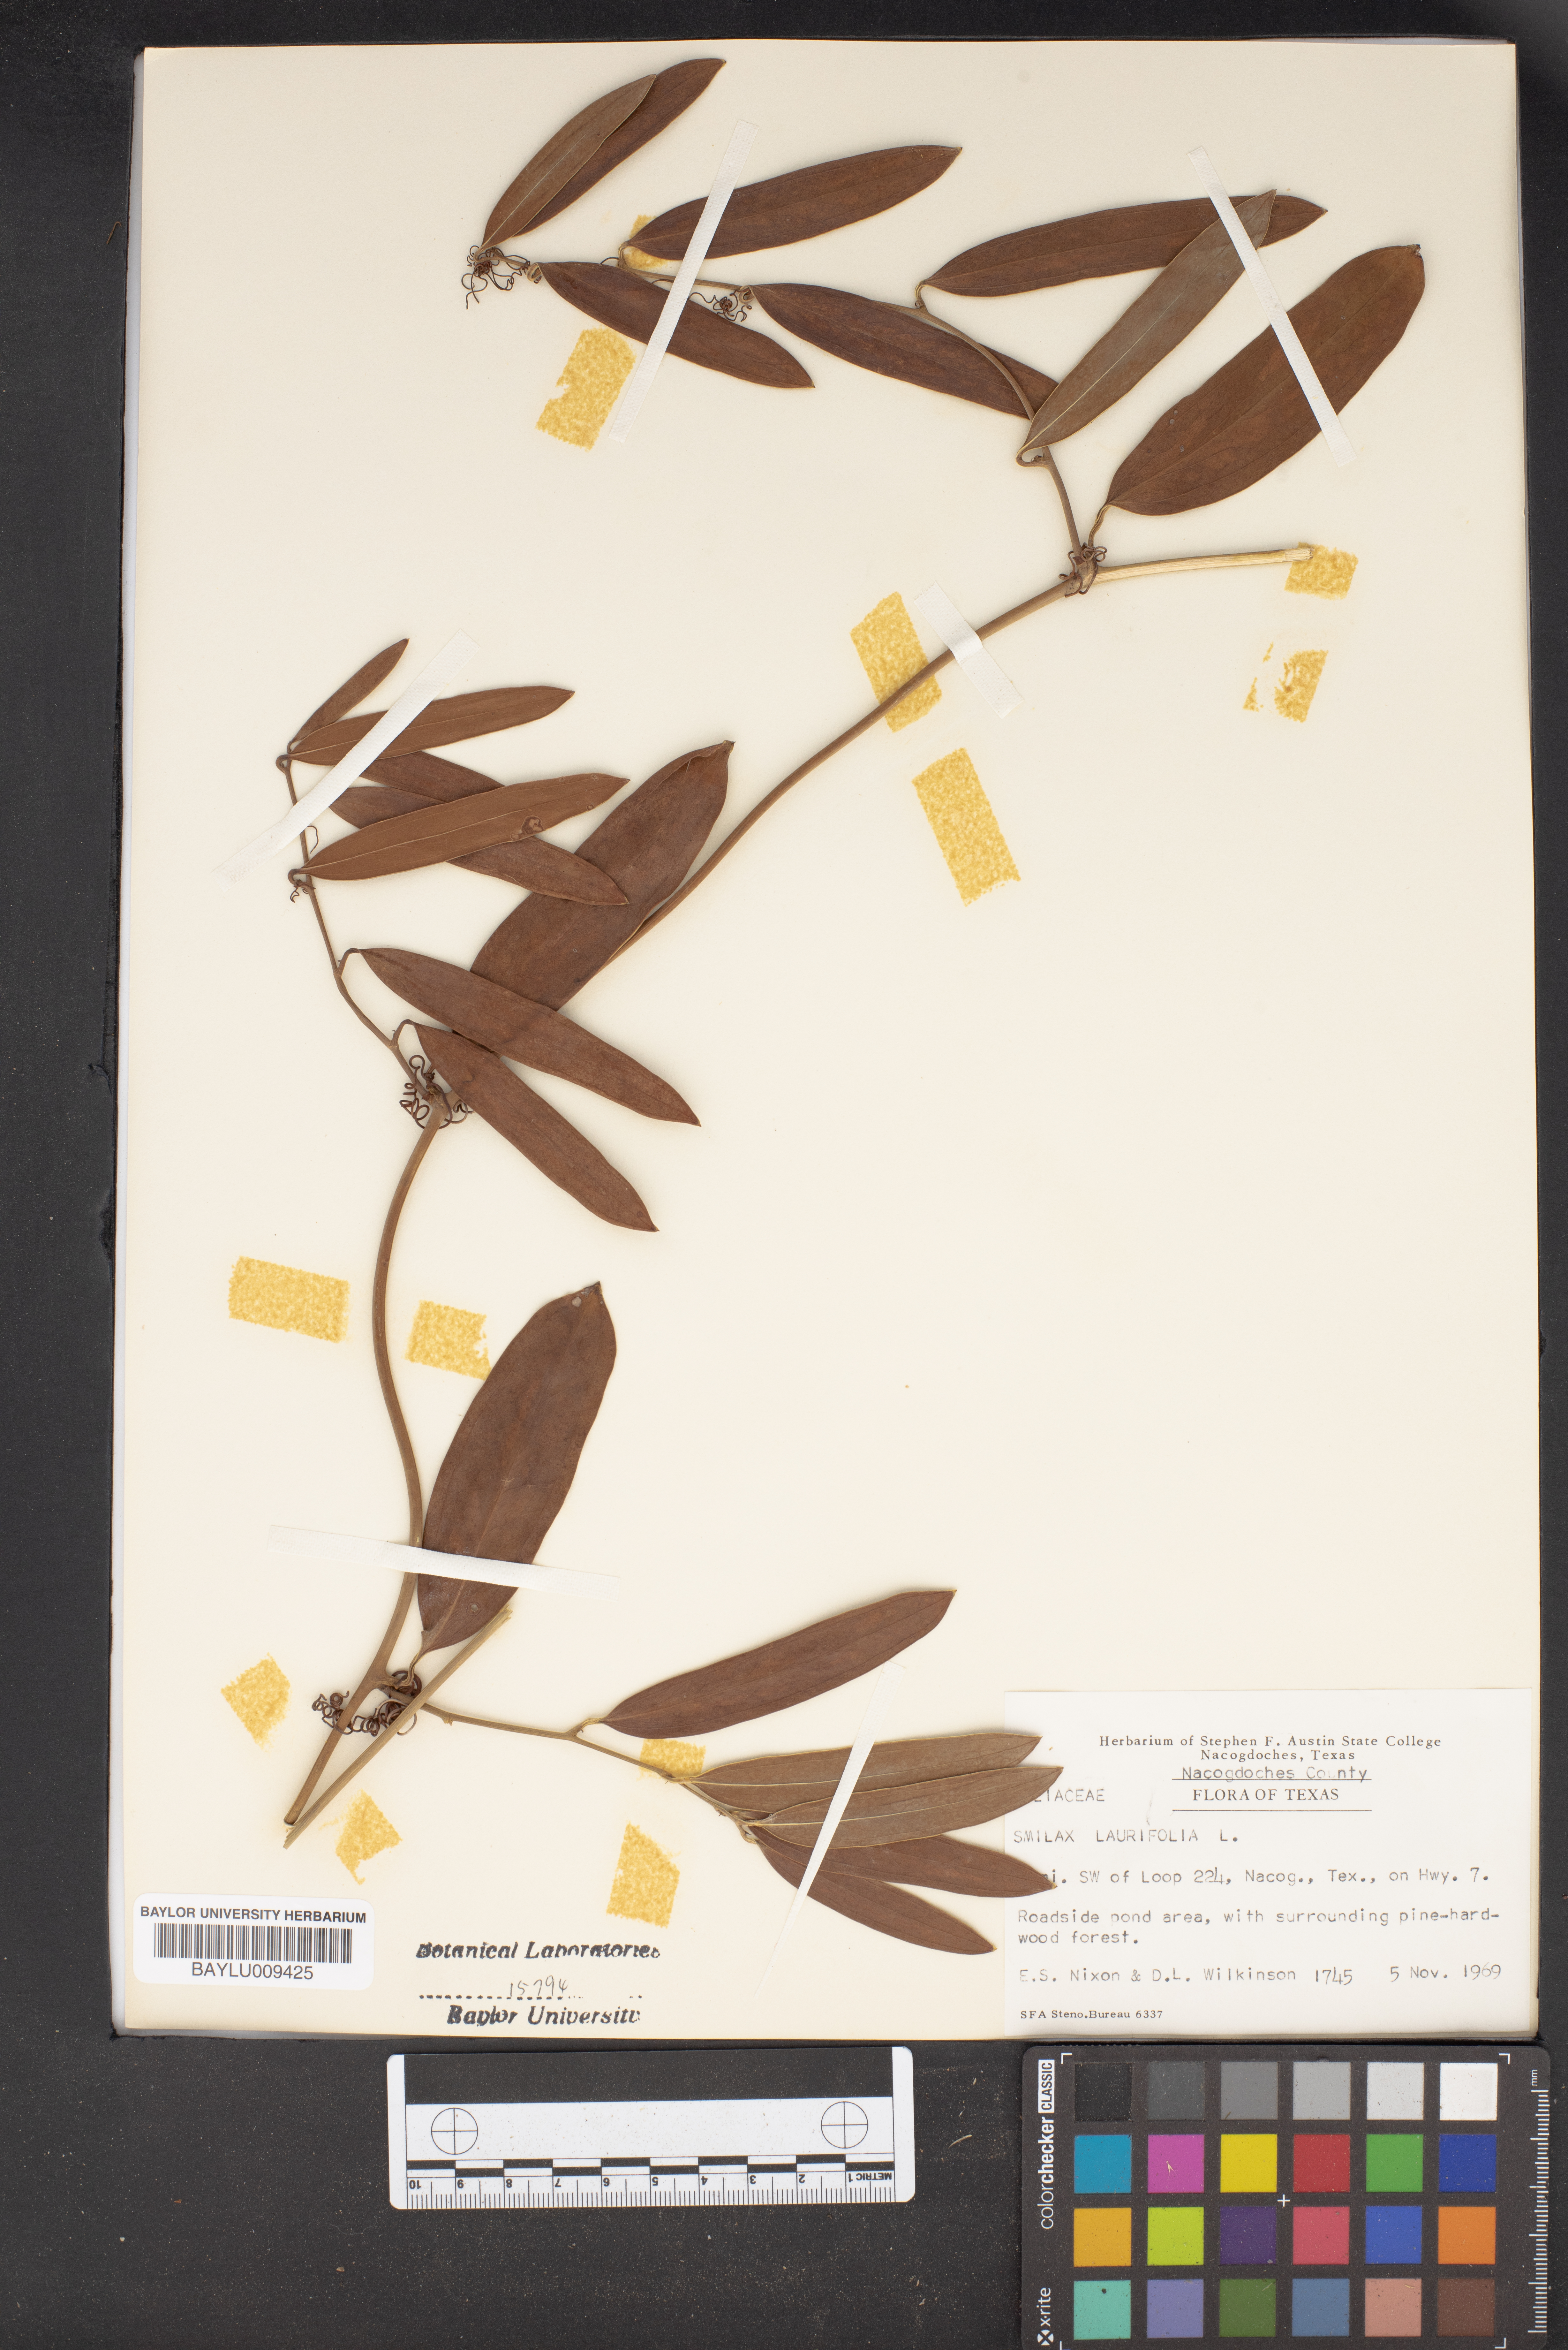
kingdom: Plantae
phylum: Tracheophyta
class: Liliopsida
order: Liliales
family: Smilacaceae
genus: Smilax
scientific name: Smilax laurifolia
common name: Bamboovine
